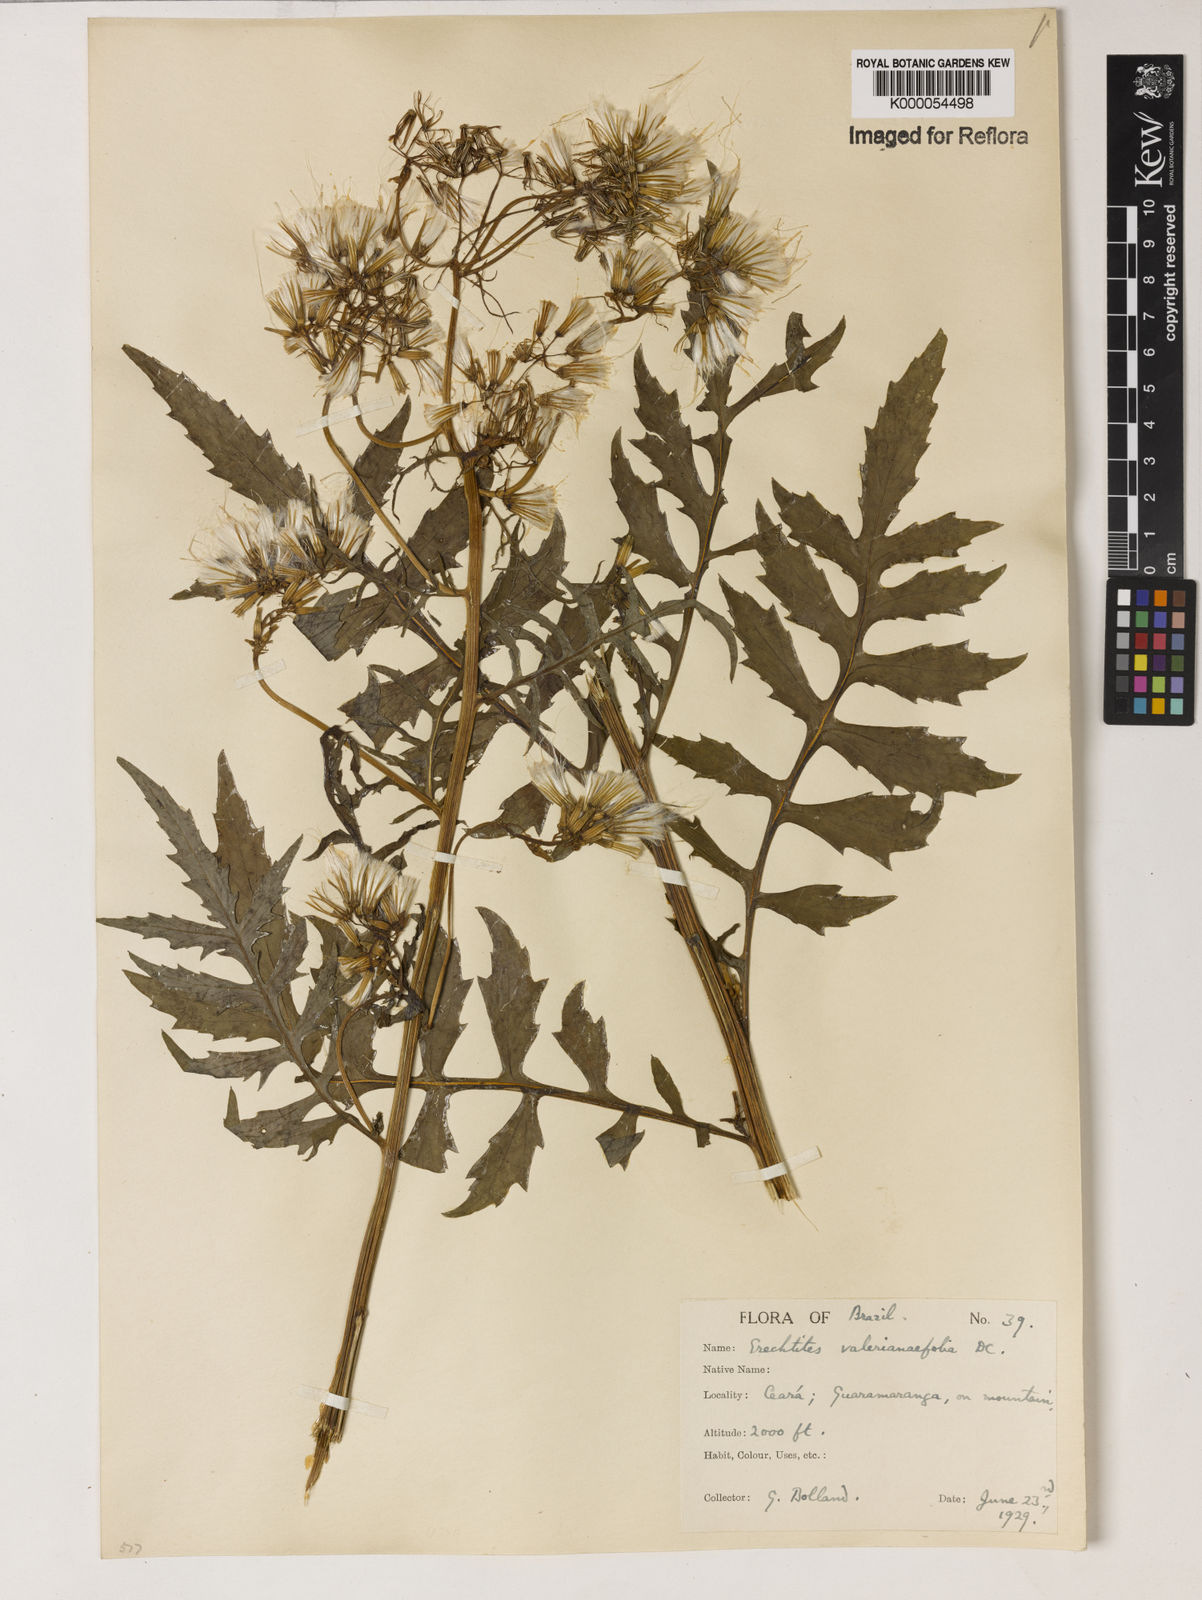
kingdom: Plantae
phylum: Tracheophyta
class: Magnoliopsida
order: Asterales
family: Asteraceae
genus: Erechtites
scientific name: Erechtites valerianifolius
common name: Tropical burnweed
